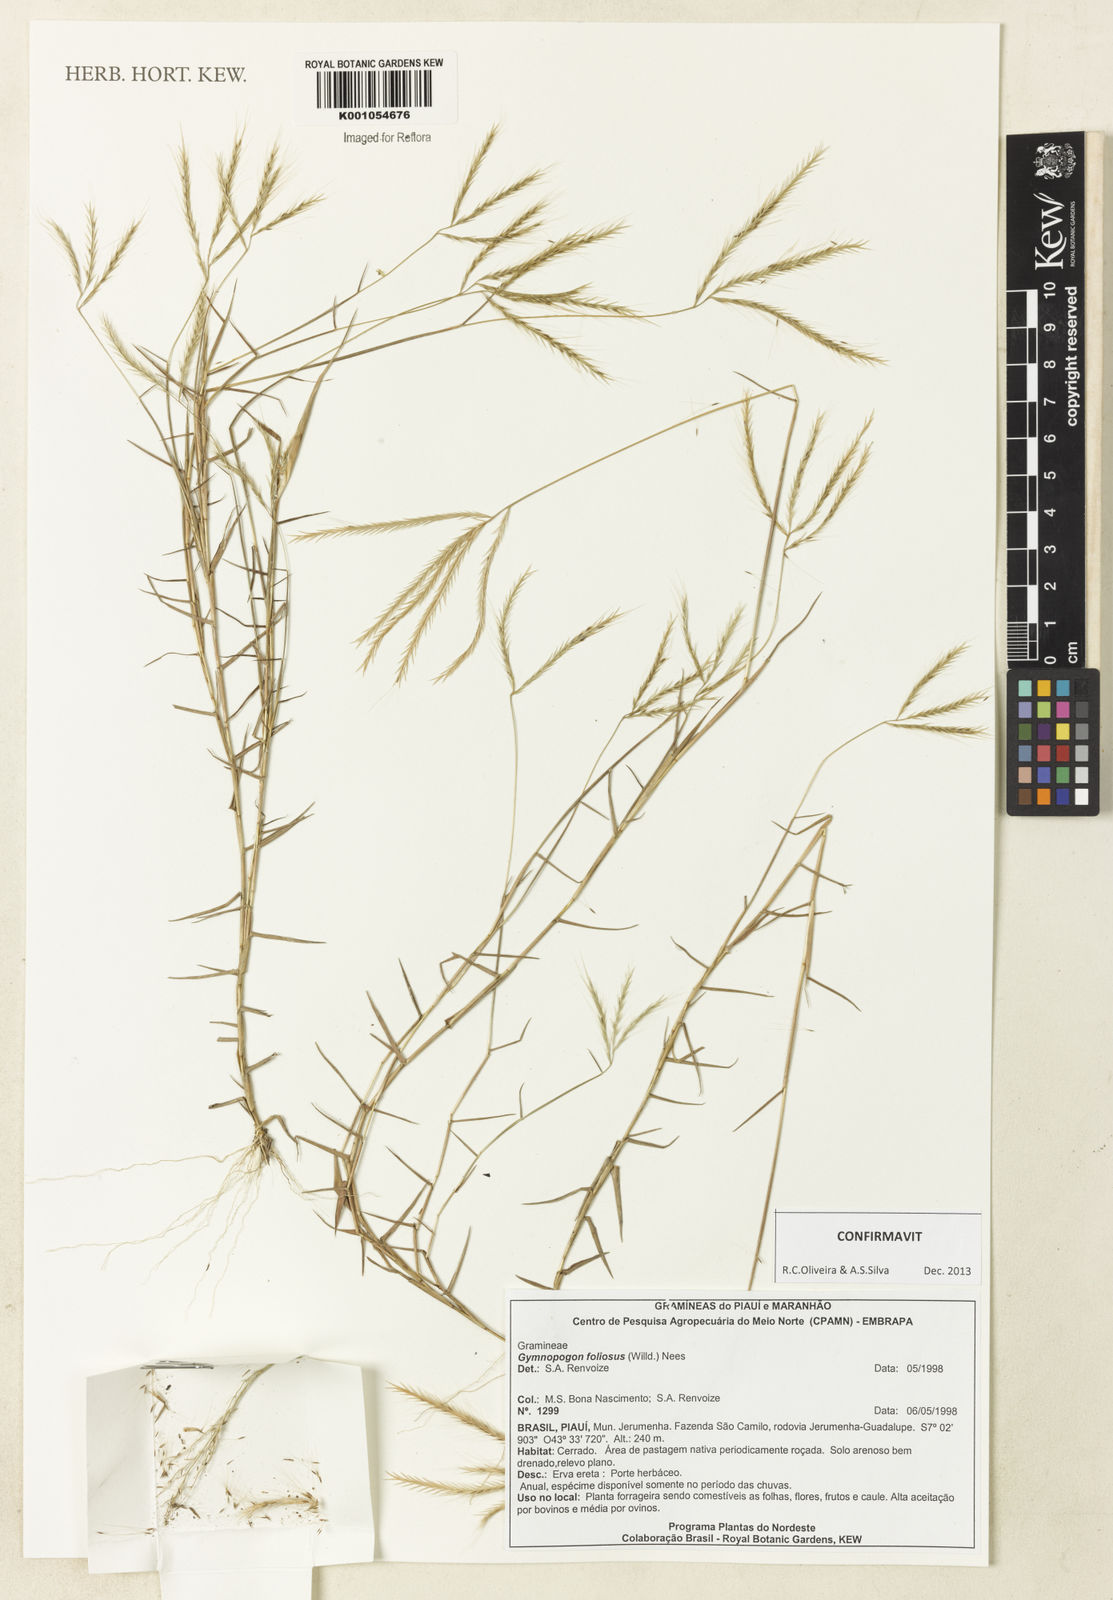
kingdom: Plantae
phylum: Tracheophyta
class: Liliopsida
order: Poales
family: Poaceae
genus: Gymnopogon
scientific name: Gymnopogon foliosus
